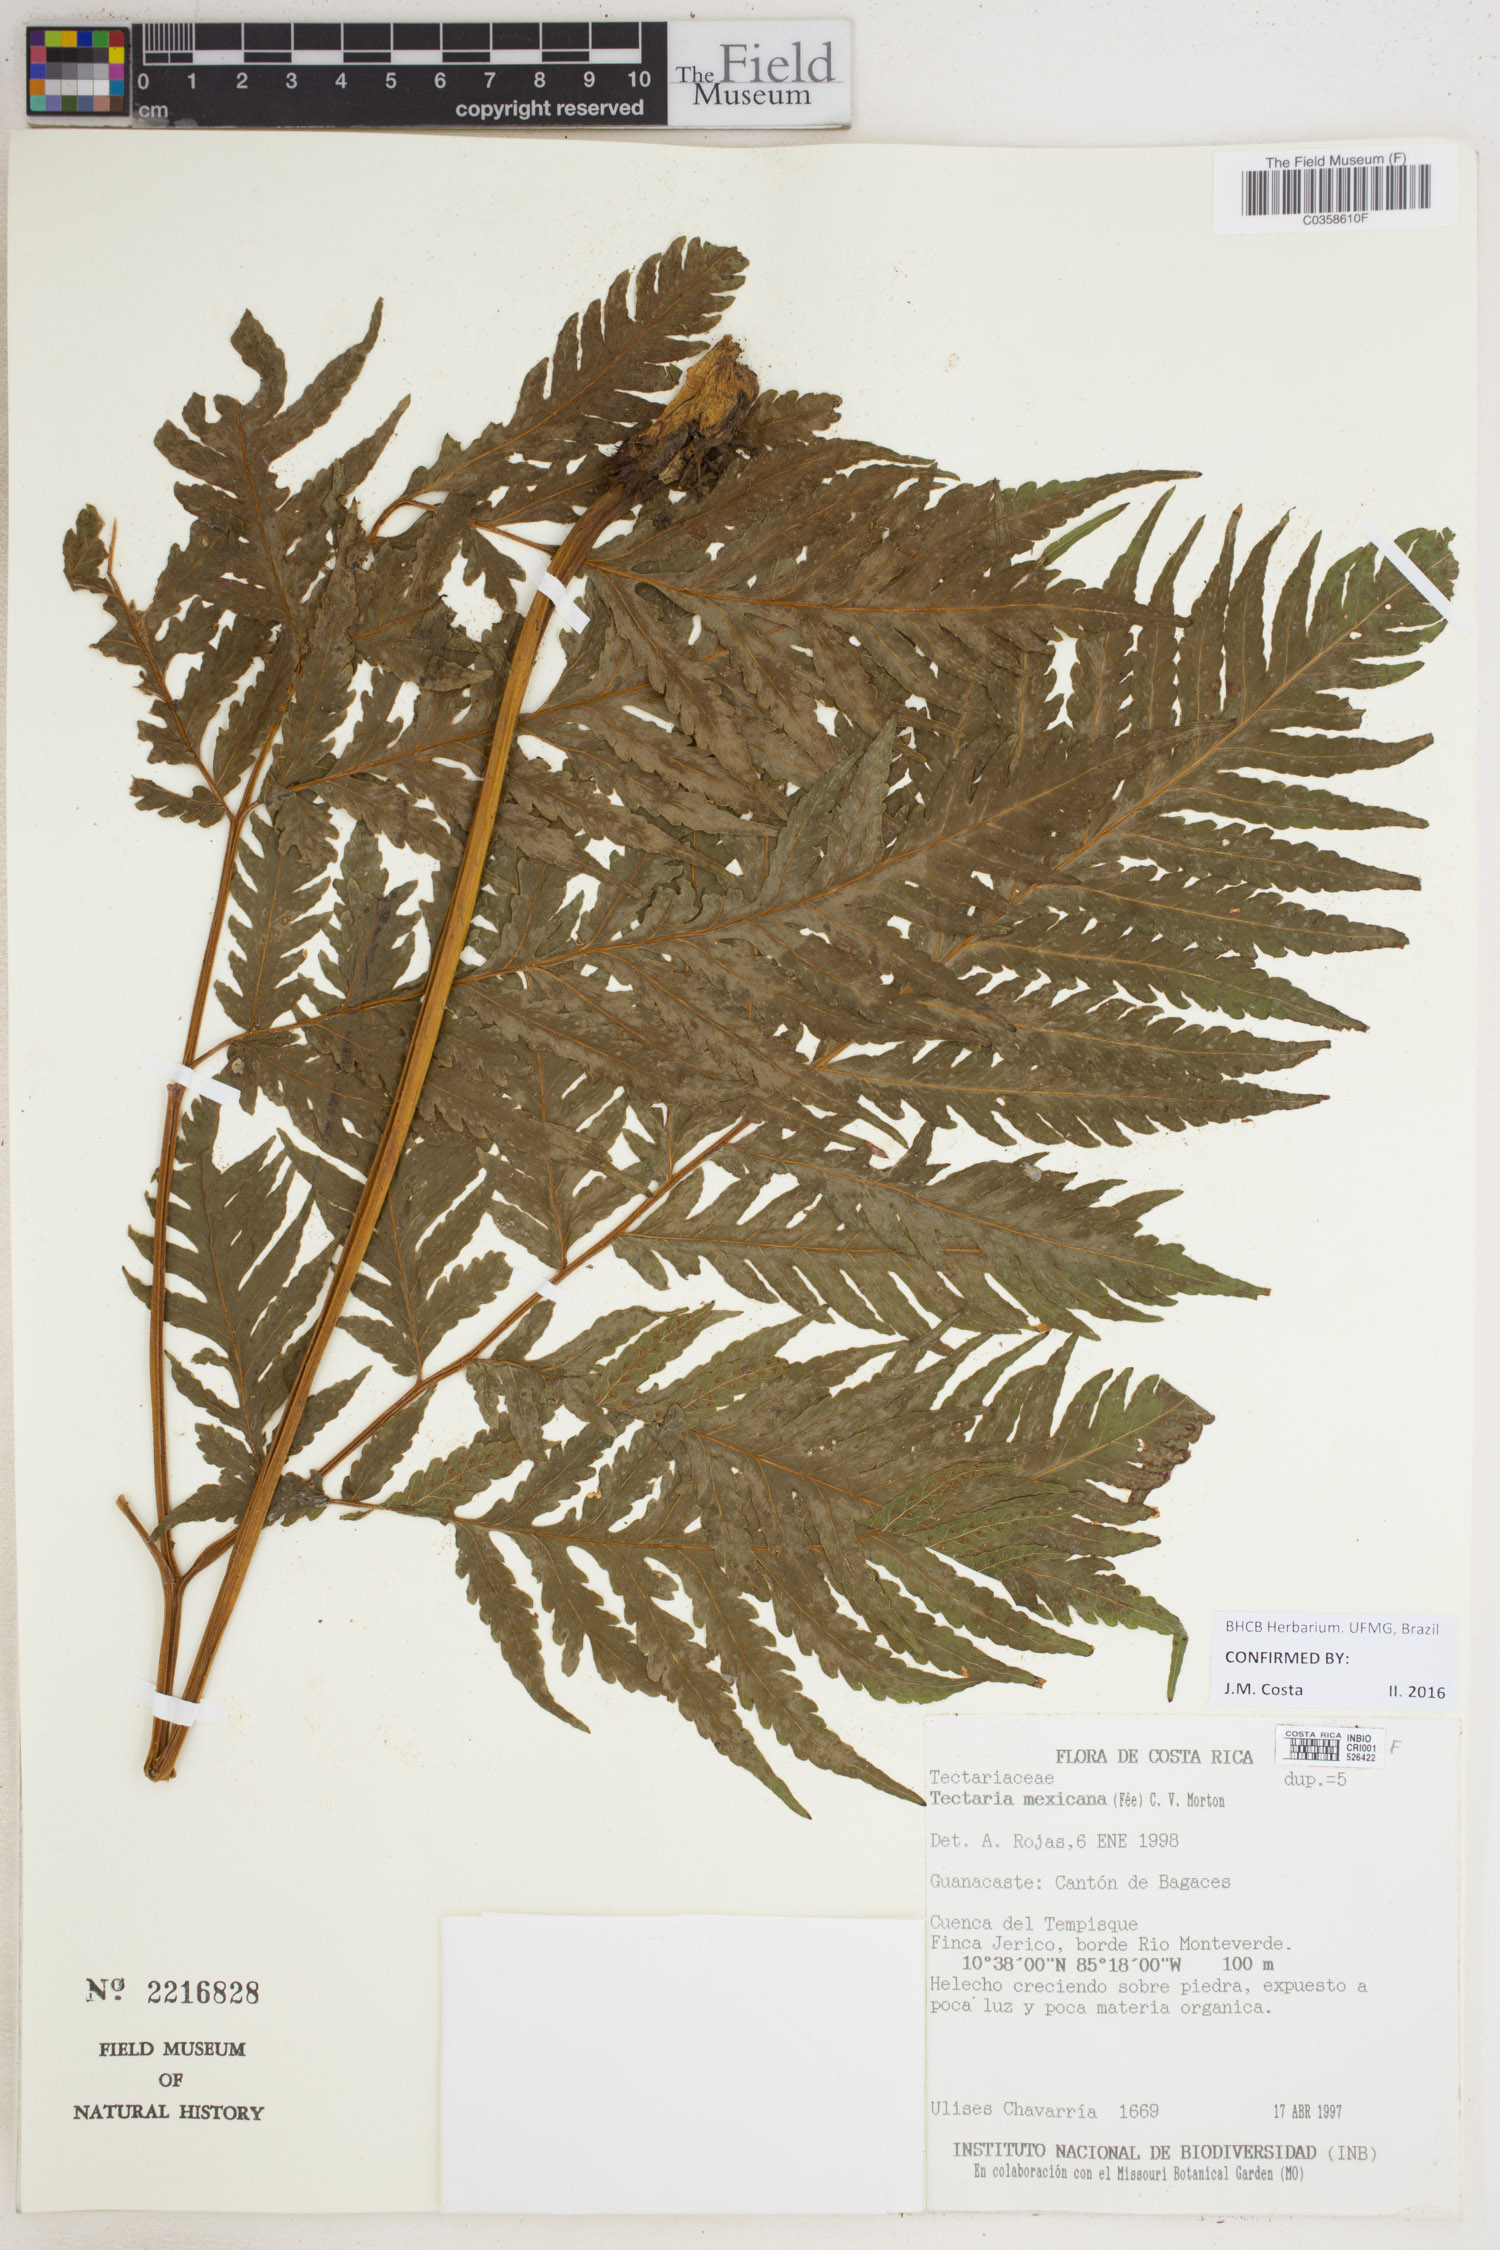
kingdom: Plantae
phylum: Tracheophyta
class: Polypodiopsida
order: Polypodiales
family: Tectariaceae
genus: Tectaria
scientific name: Tectaria mexicana
